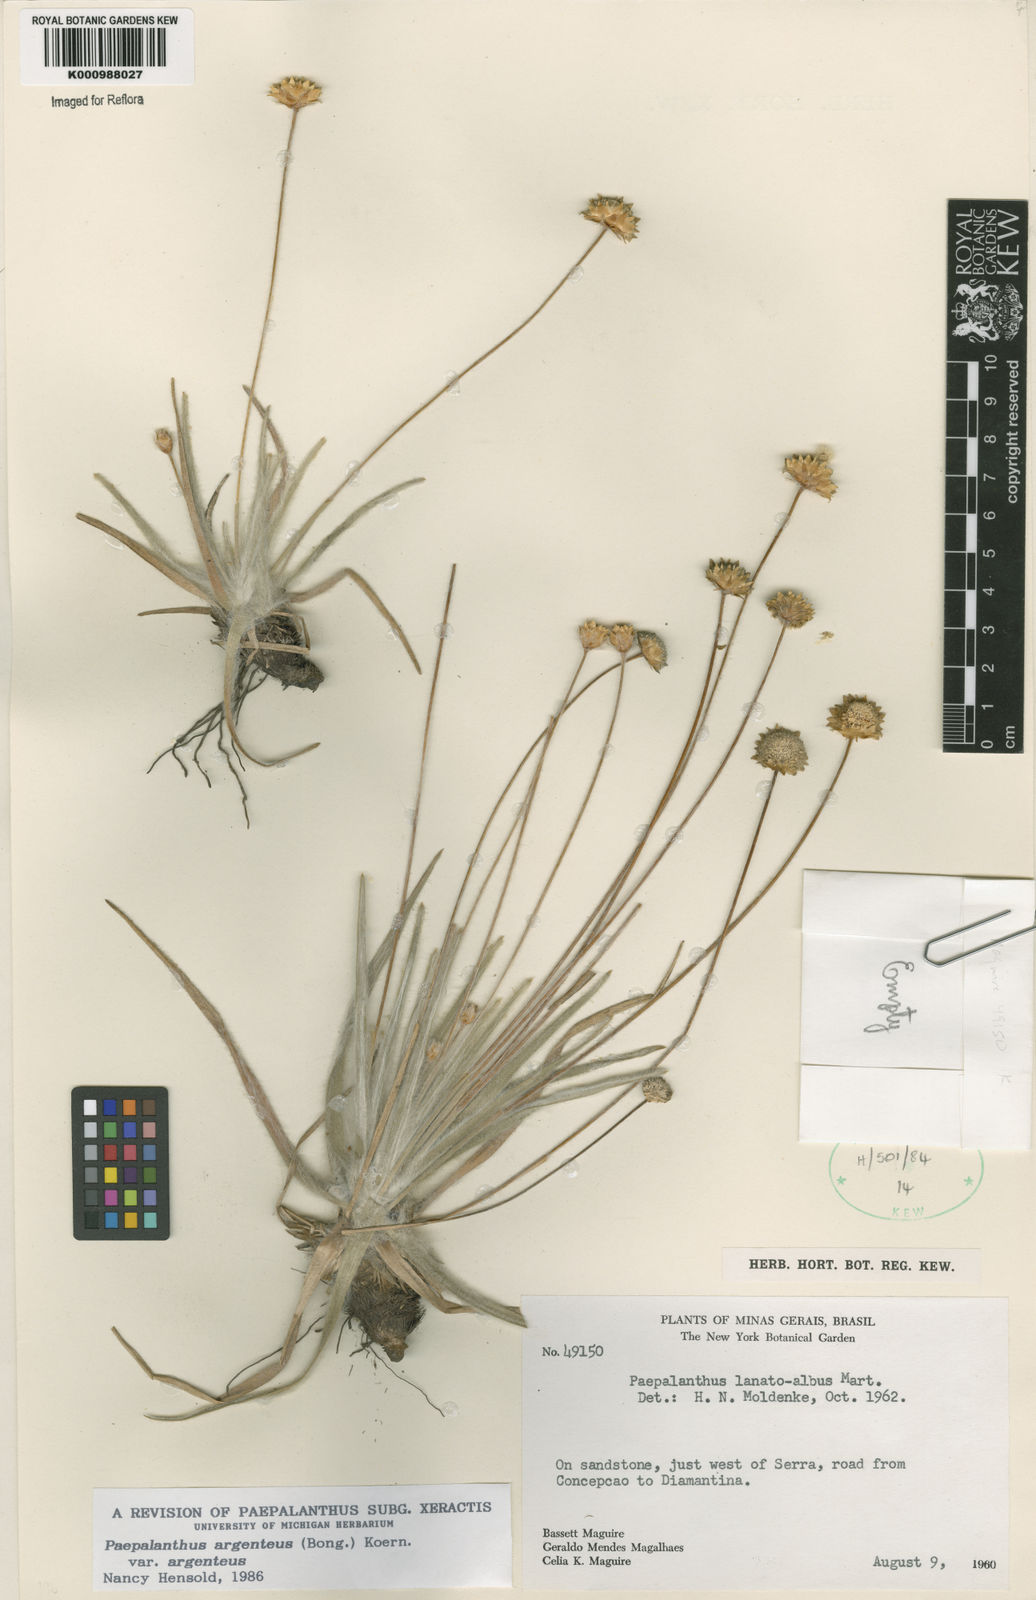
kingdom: Plantae
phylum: Tracheophyta
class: Liliopsida
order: Poales
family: Eriocaulaceae
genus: Paepalanthus
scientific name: Paepalanthus
